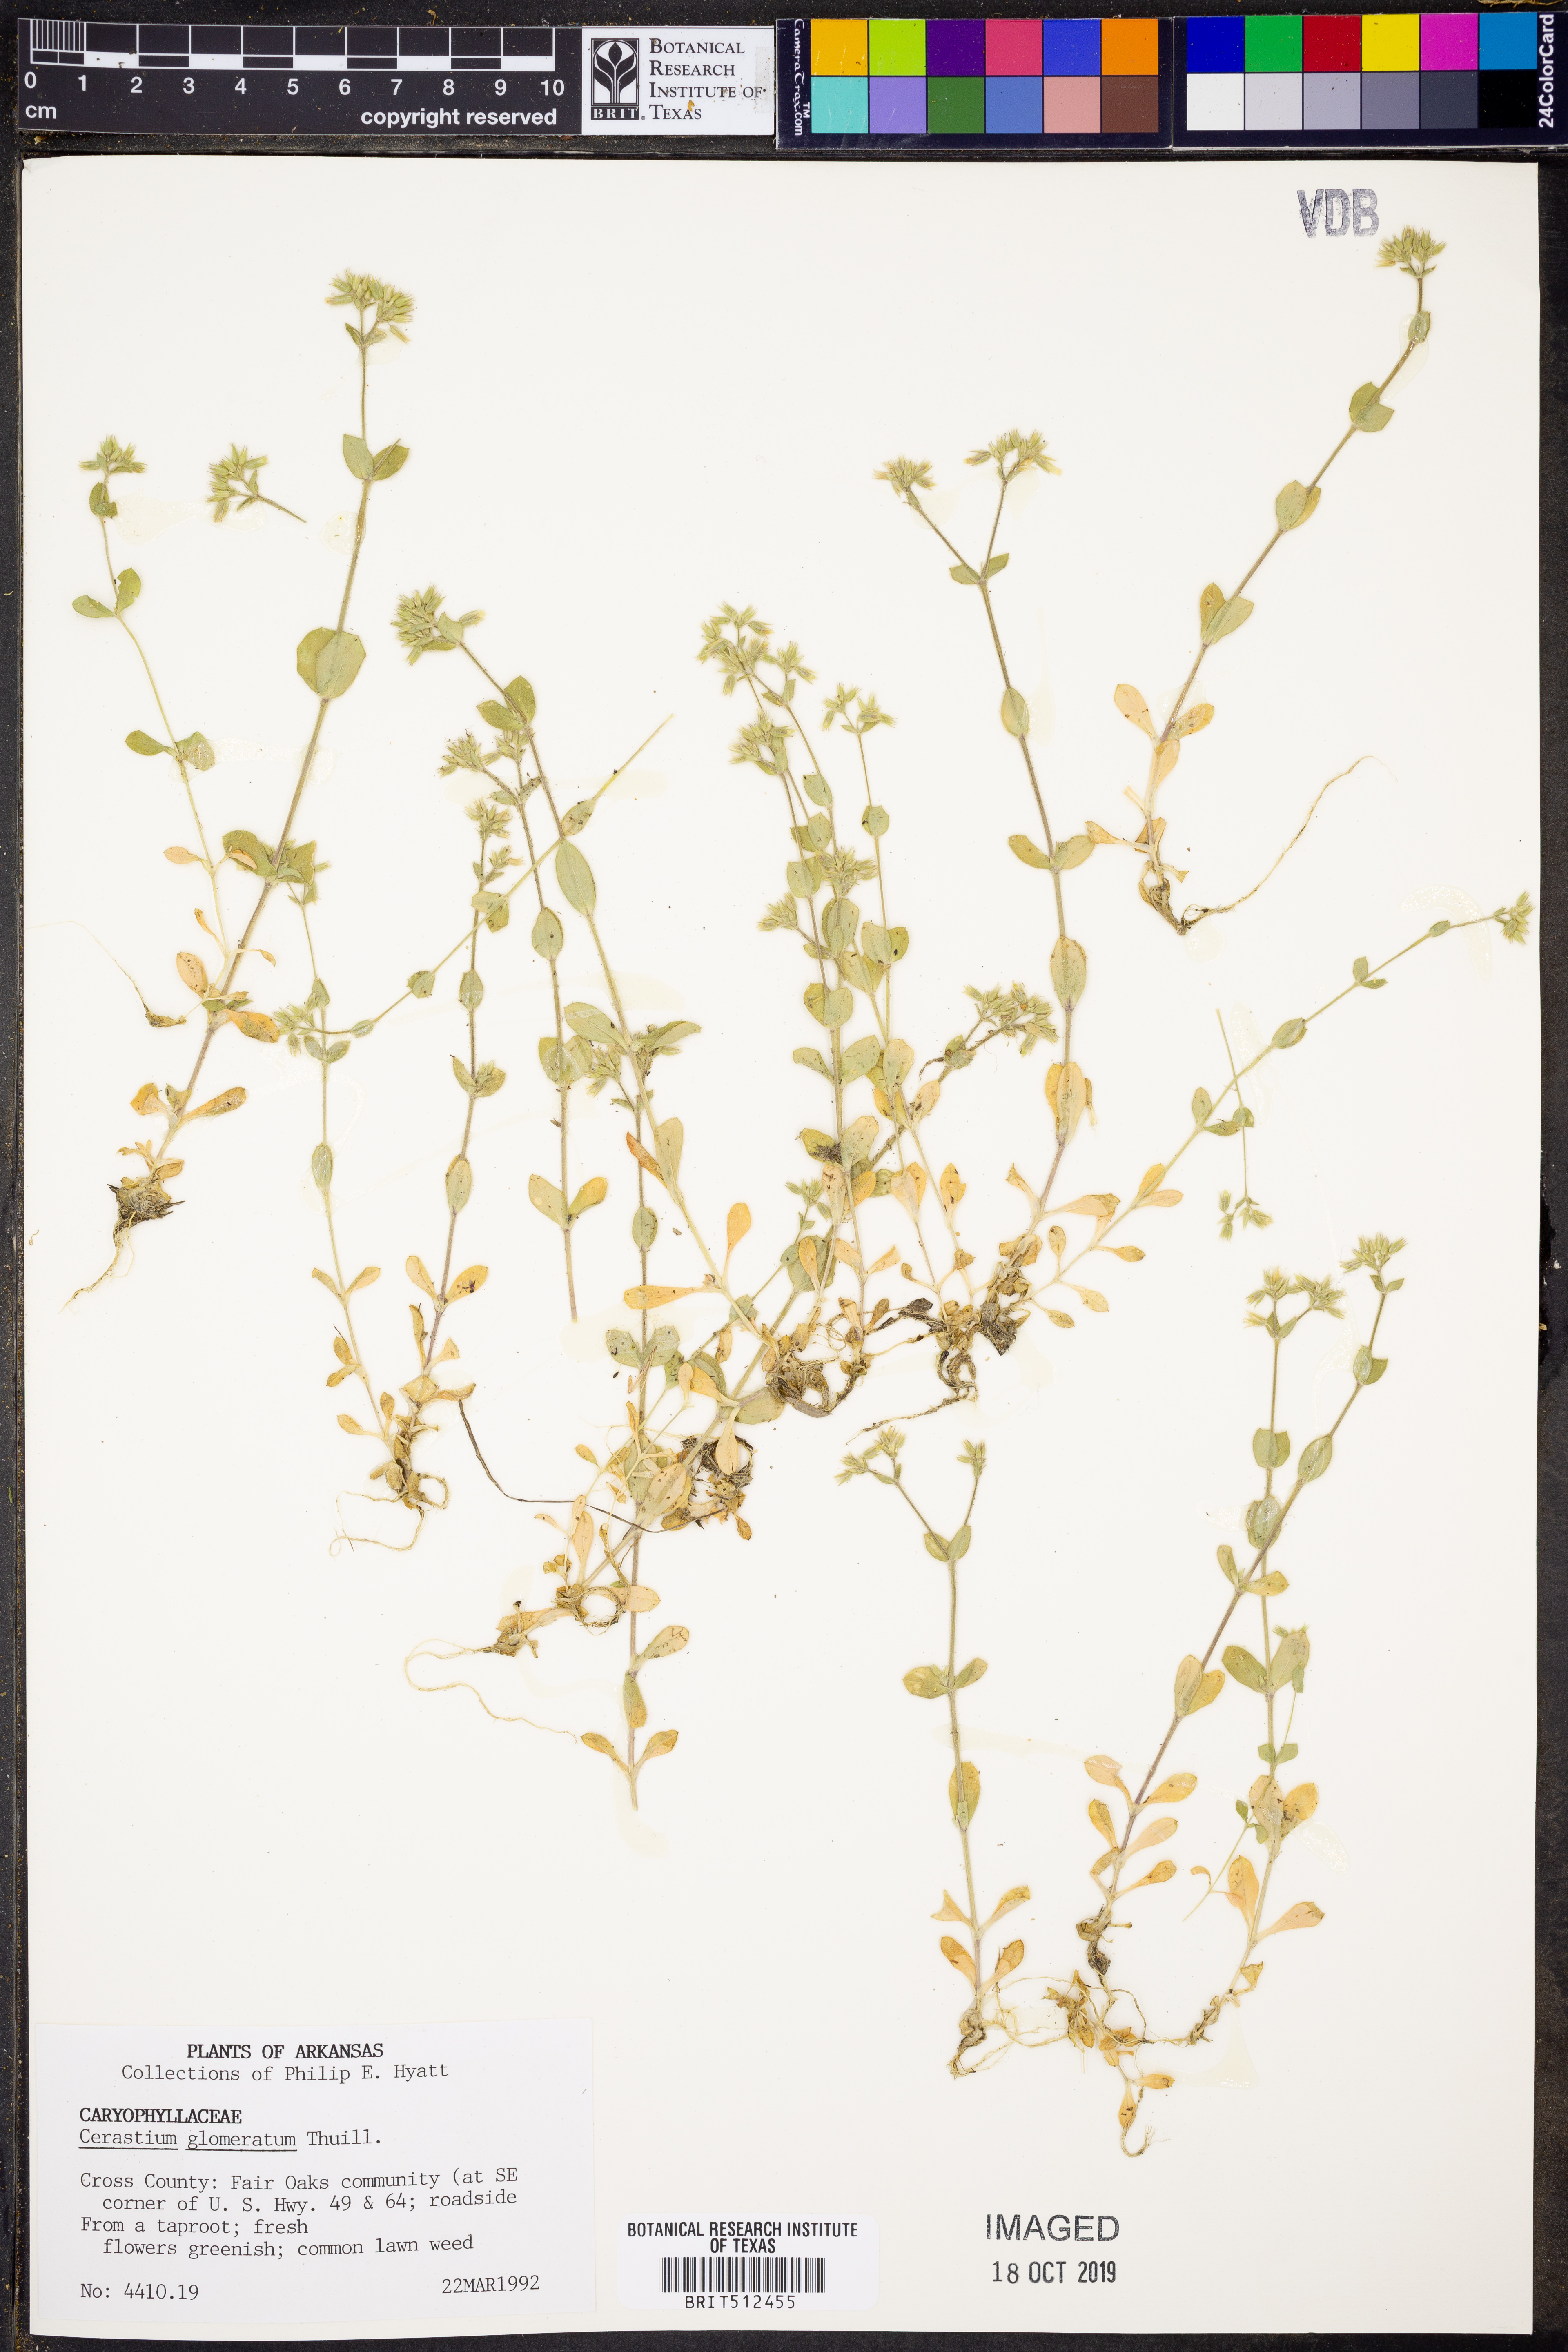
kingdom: Plantae
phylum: Tracheophyta
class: Magnoliopsida
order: Caryophyllales
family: Caryophyllaceae
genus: Cerastium
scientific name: Cerastium glomeratum
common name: Sticky chickweed
